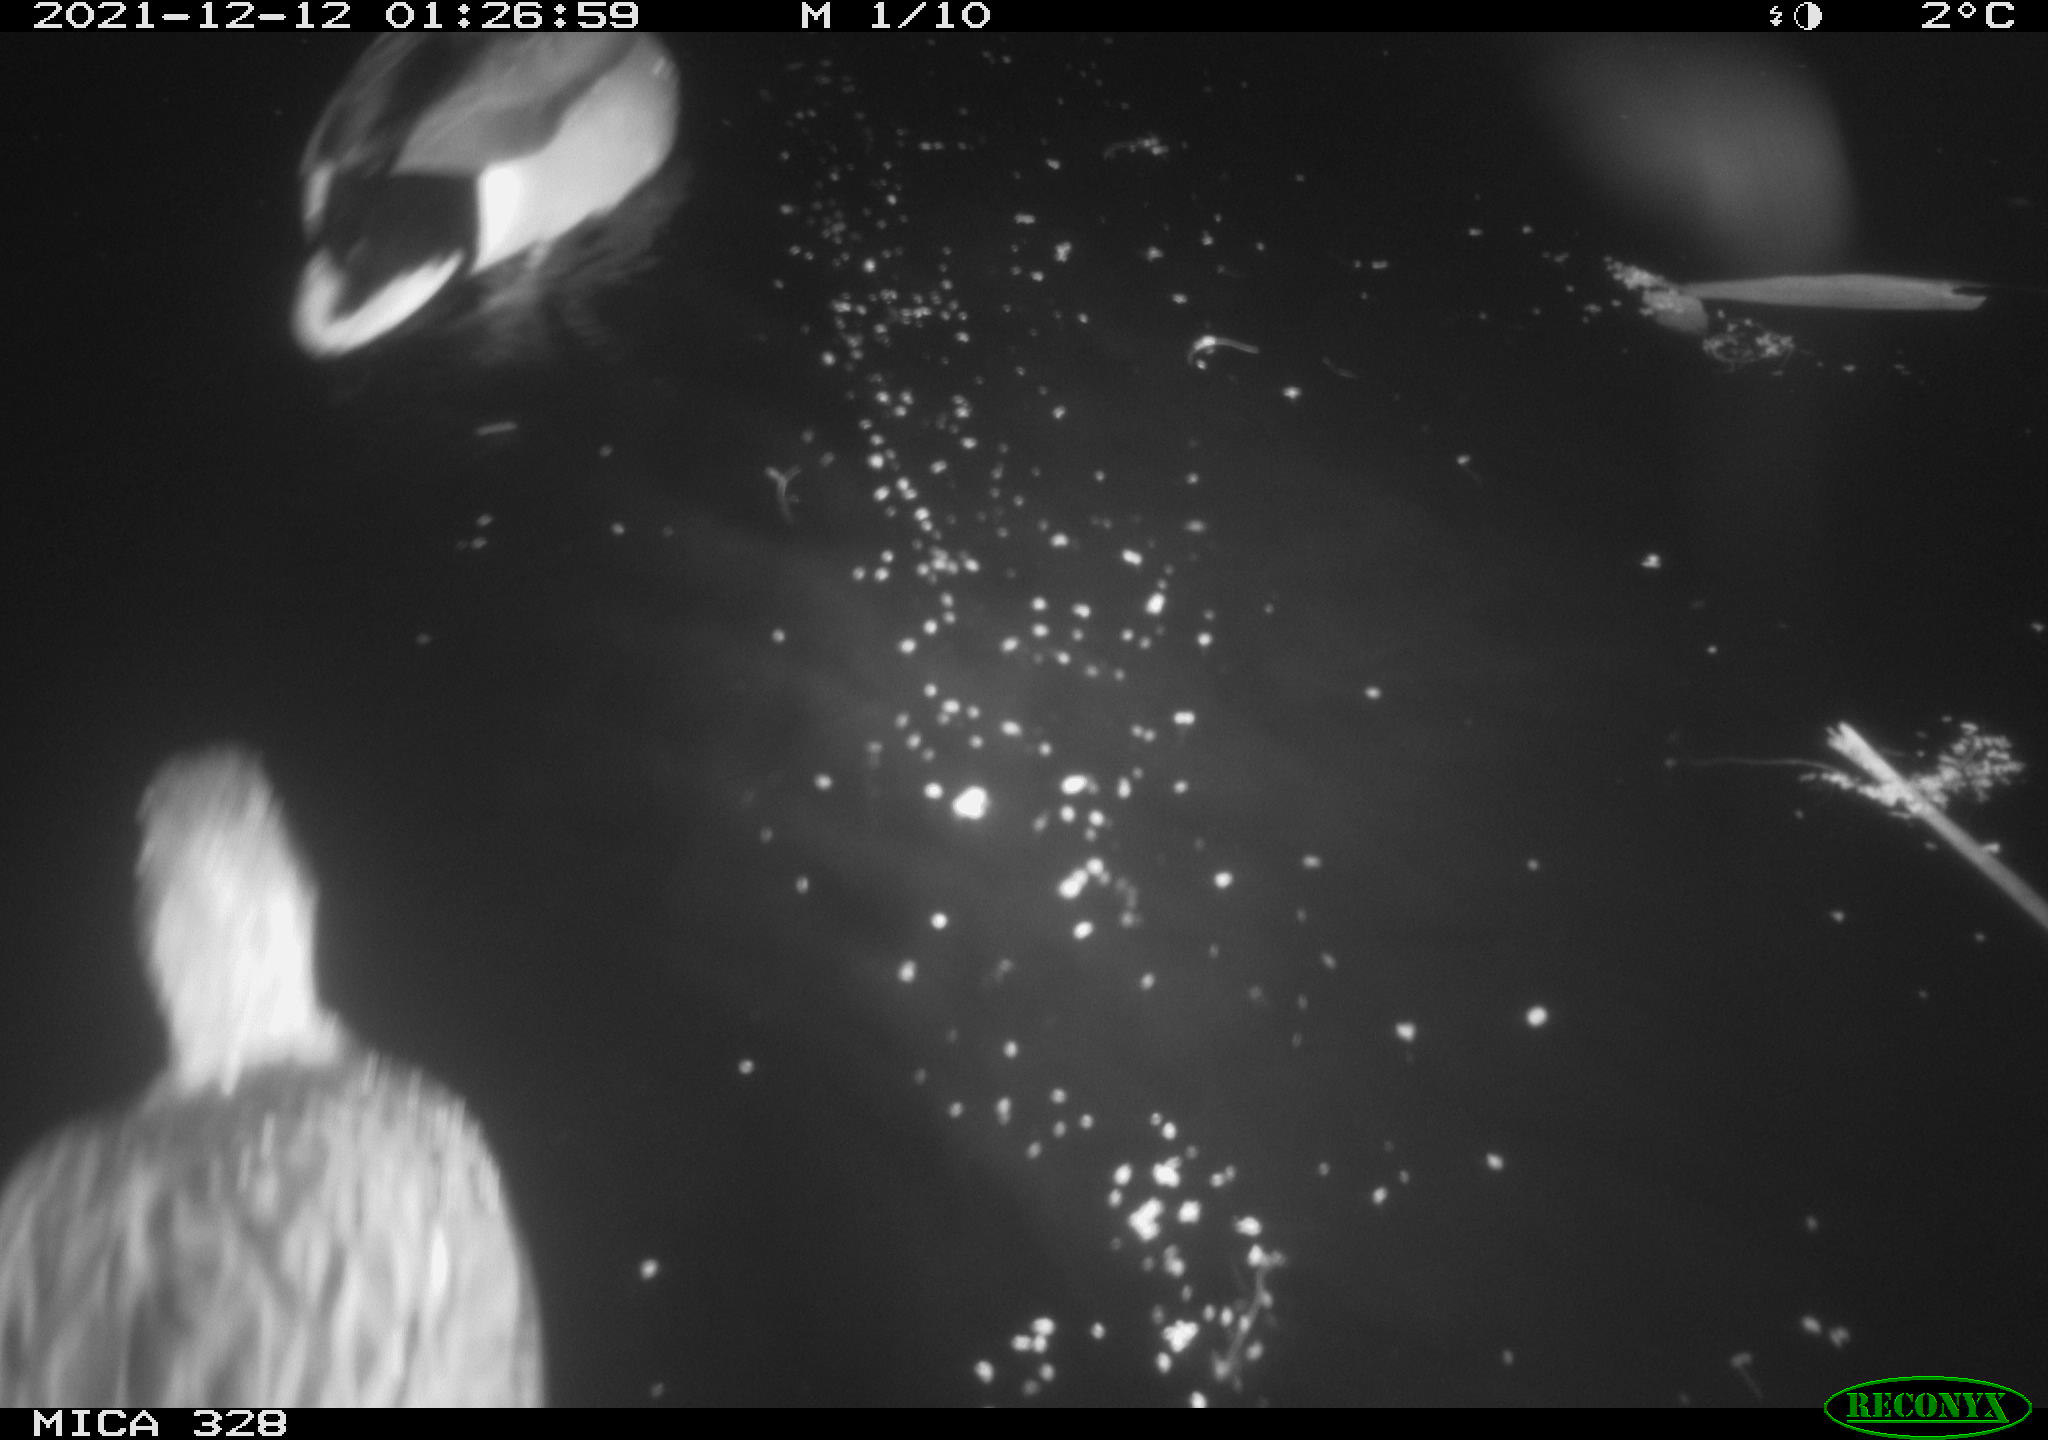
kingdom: Animalia
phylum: Chordata
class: Aves
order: Gruiformes
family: Rallidae
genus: Gallinula
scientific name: Gallinula chloropus
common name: Common moorhen
